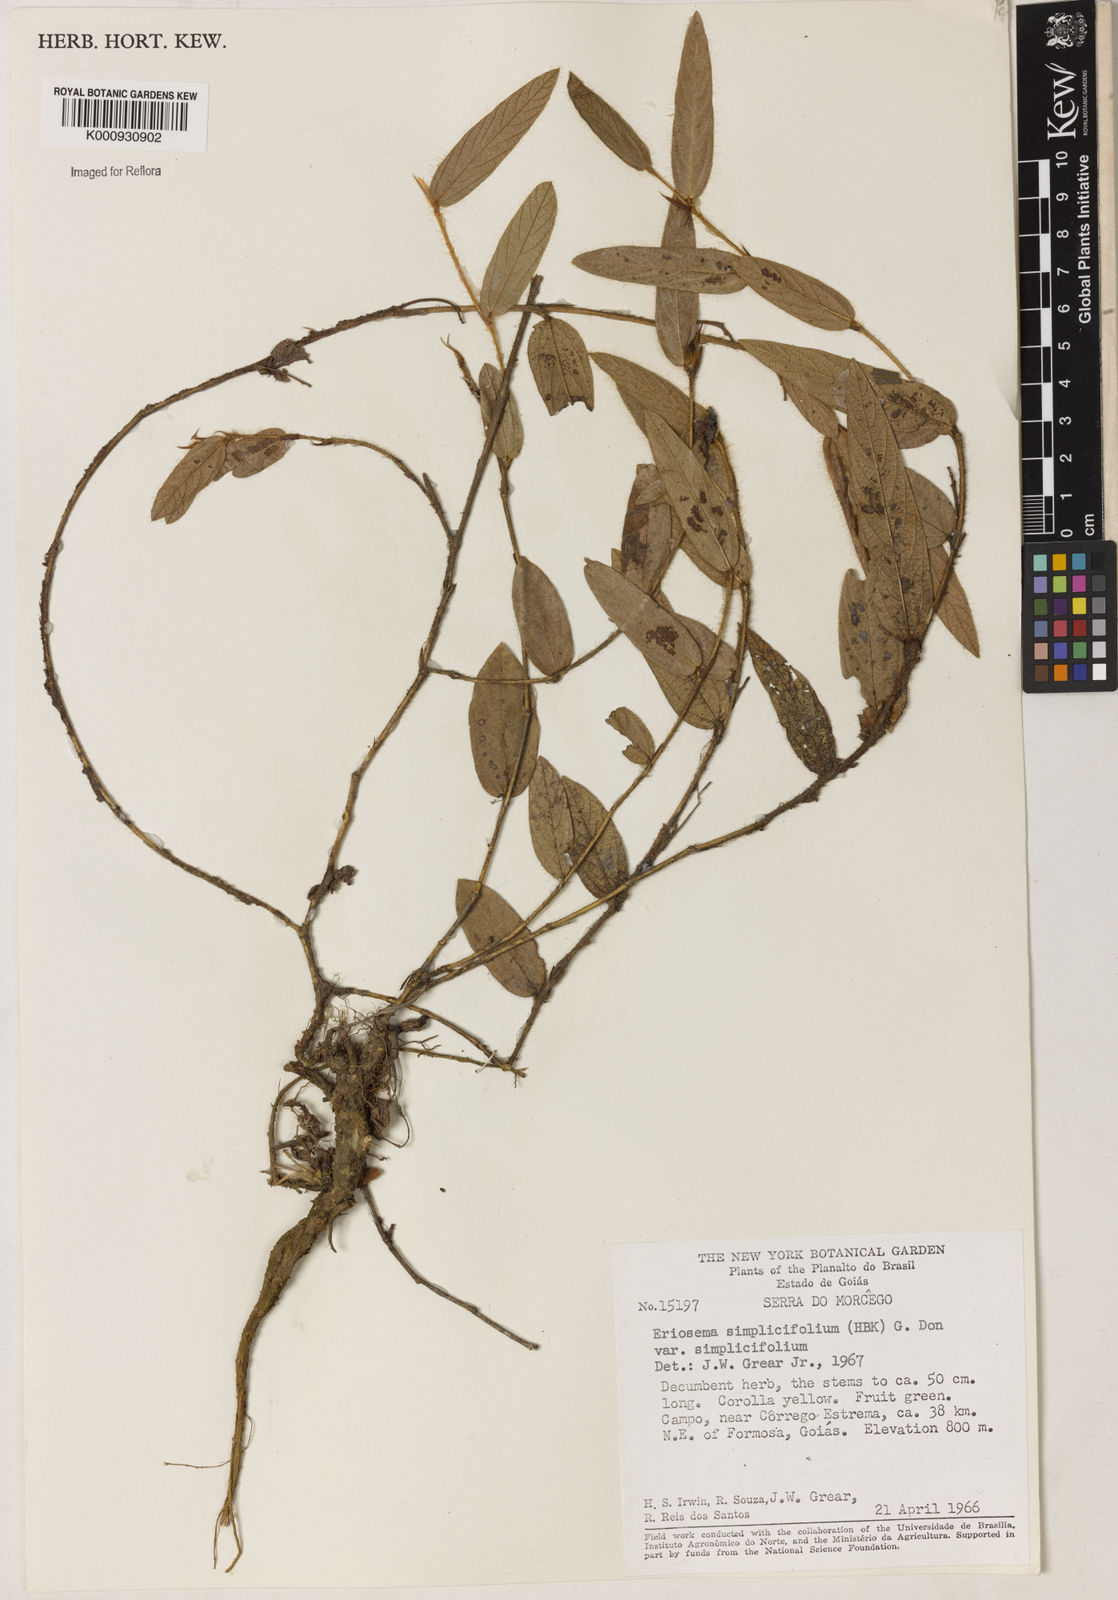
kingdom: Plantae
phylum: Tracheophyta
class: Magnoliopsida
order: Fabales
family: Fabaceae
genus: Eriosema
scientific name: Eriosema simplicifolium
